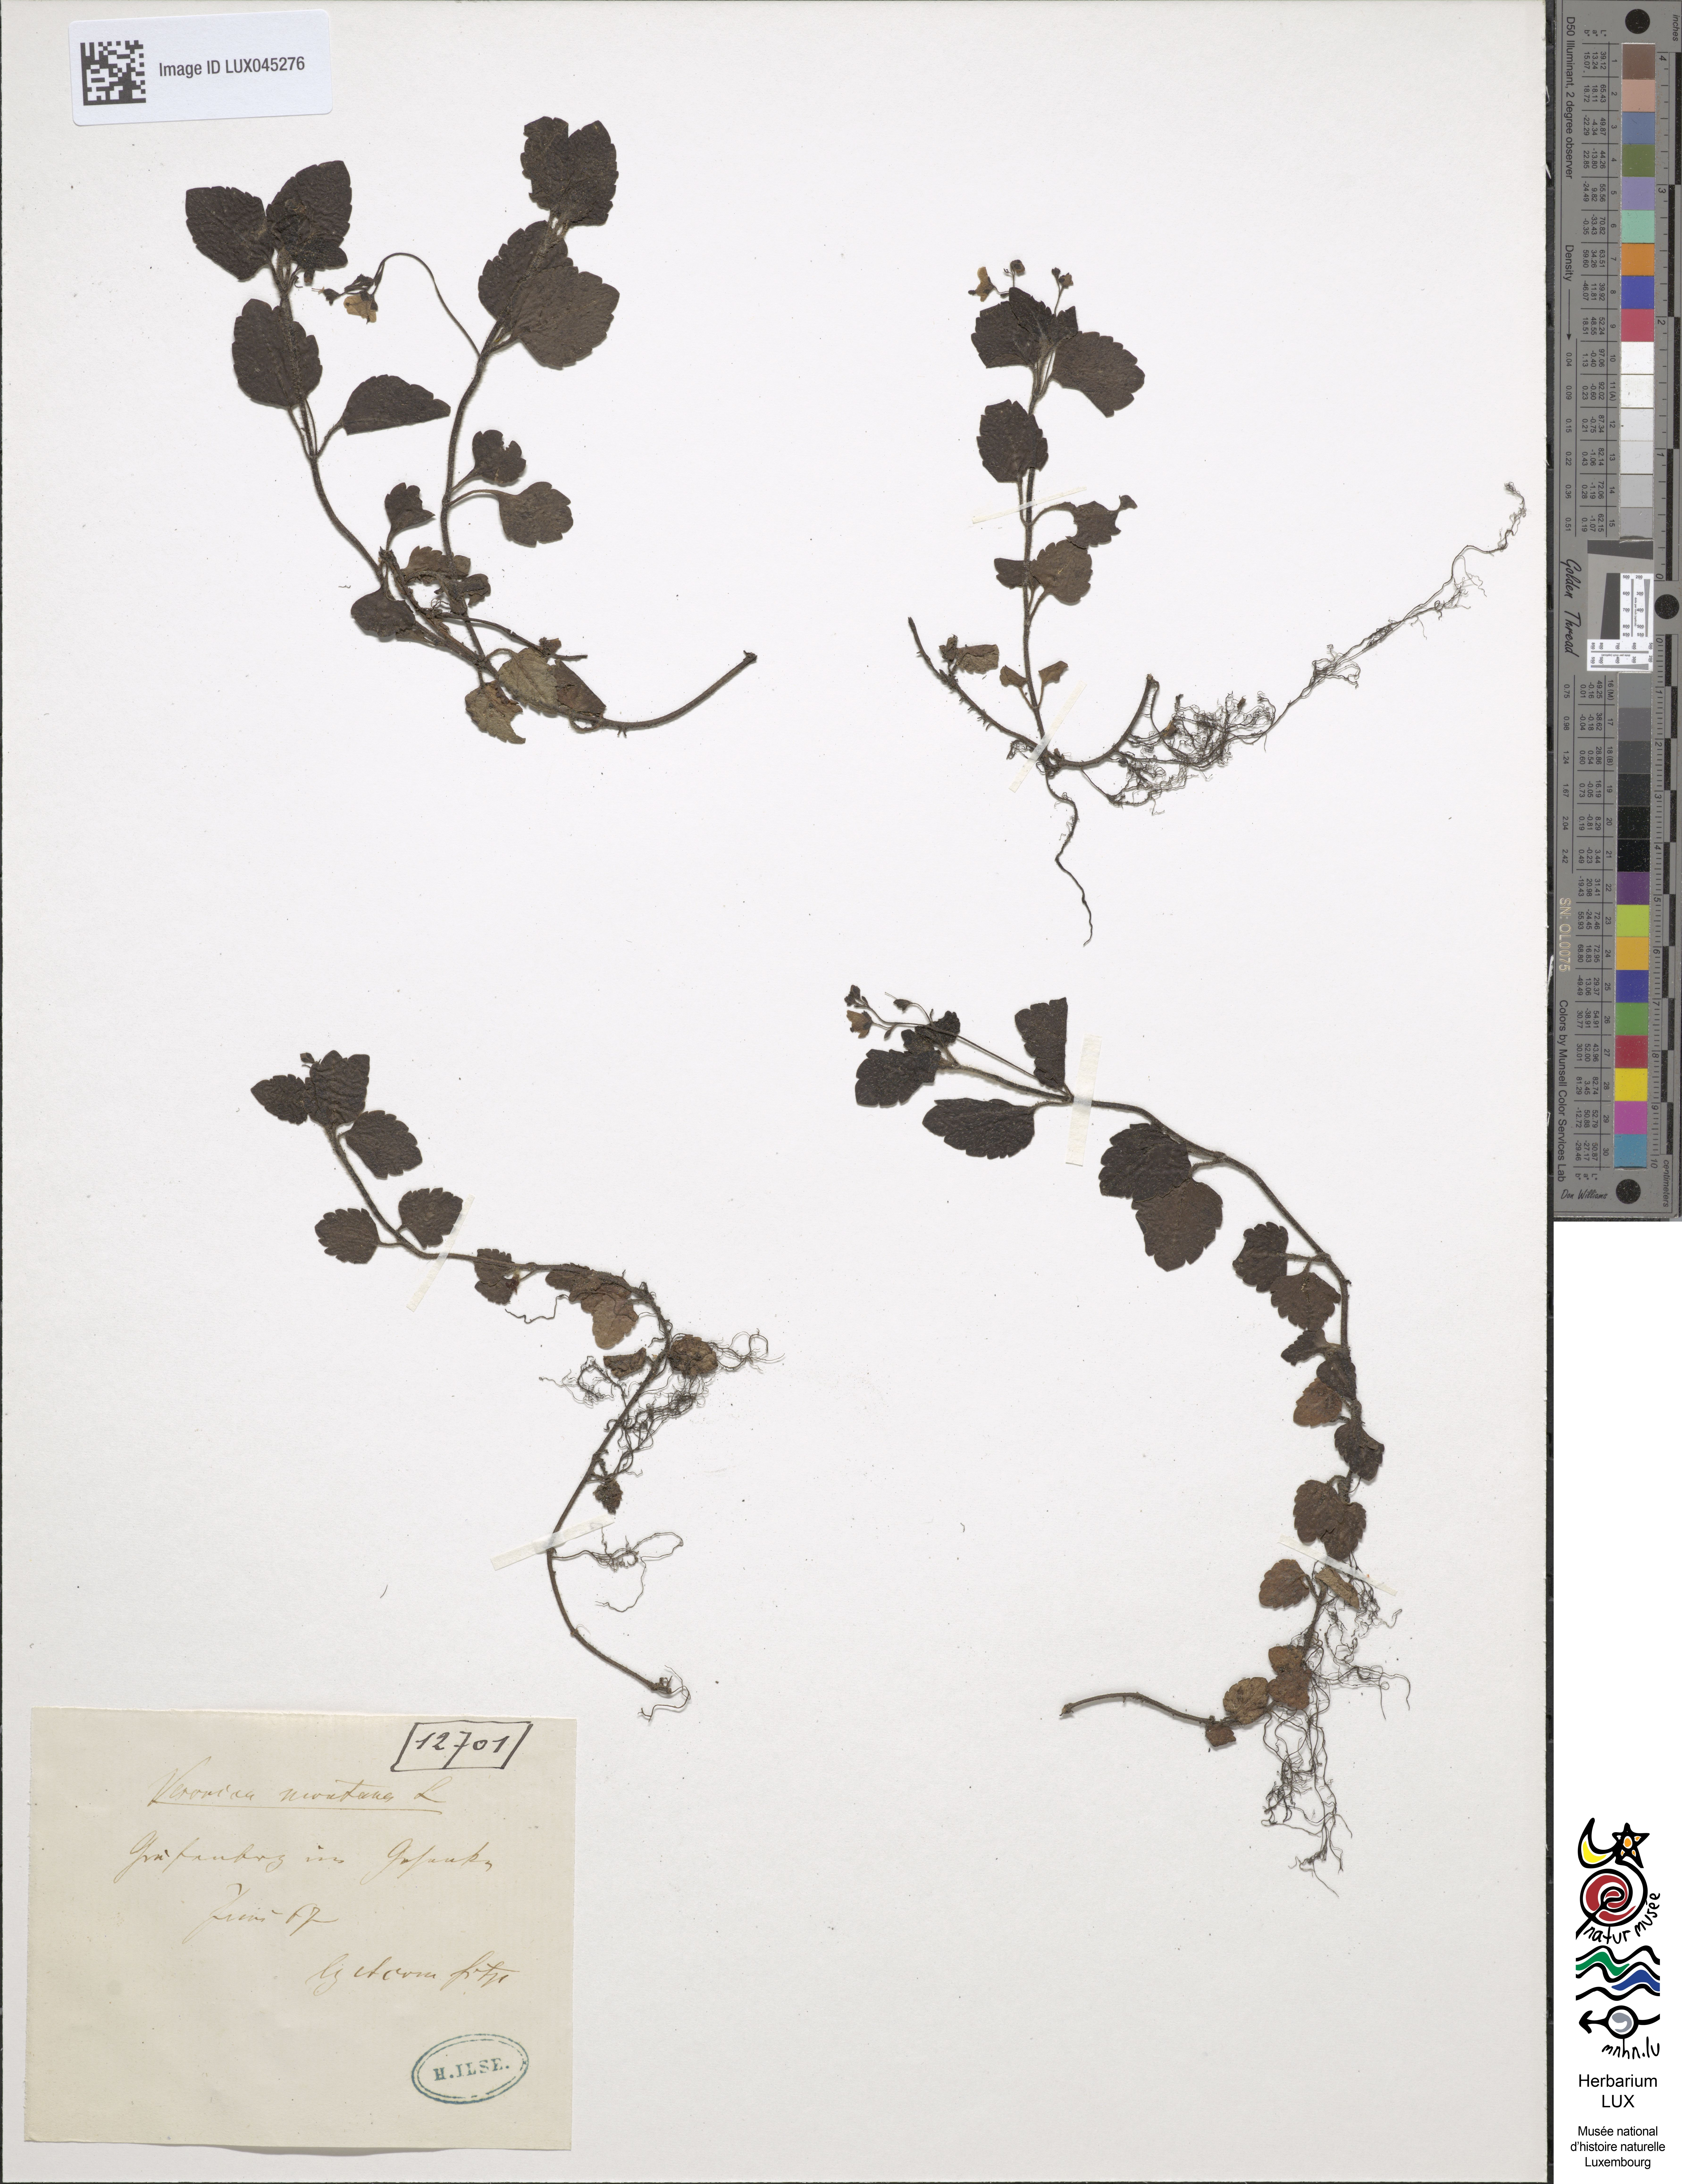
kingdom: Plantae
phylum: Tracheophyta
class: Magnoliopsida
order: Lamiales
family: Plantaginaceae
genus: Veronica
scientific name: Veronica montana
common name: Wood speedwell
